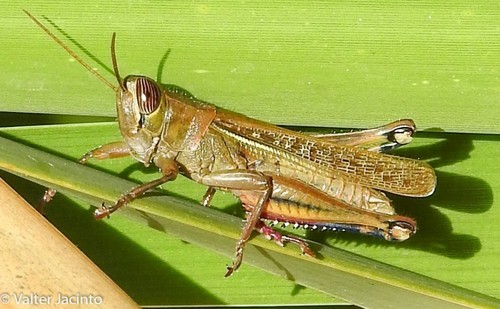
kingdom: Animalia
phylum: Arthropoda
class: Insecta
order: Orthoptera
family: Acrididae
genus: Eyprepocnemis
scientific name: Eyprepocnemis plorans
